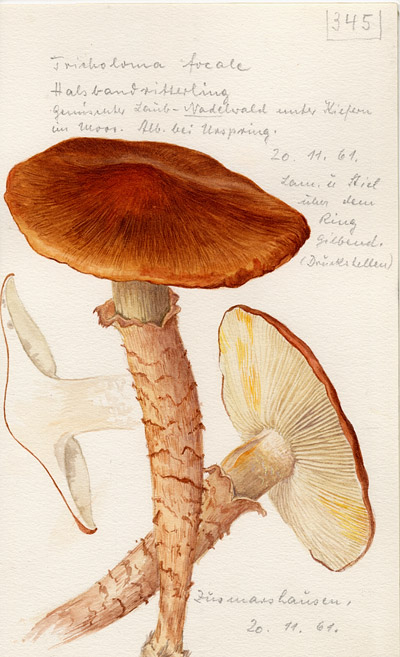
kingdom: Fungi
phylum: Basidiomycota
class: Agaricomycetes
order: Agaricales
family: Tricholomataceae
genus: Tricholoma
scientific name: Tricholoma focale
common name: Booted knight
